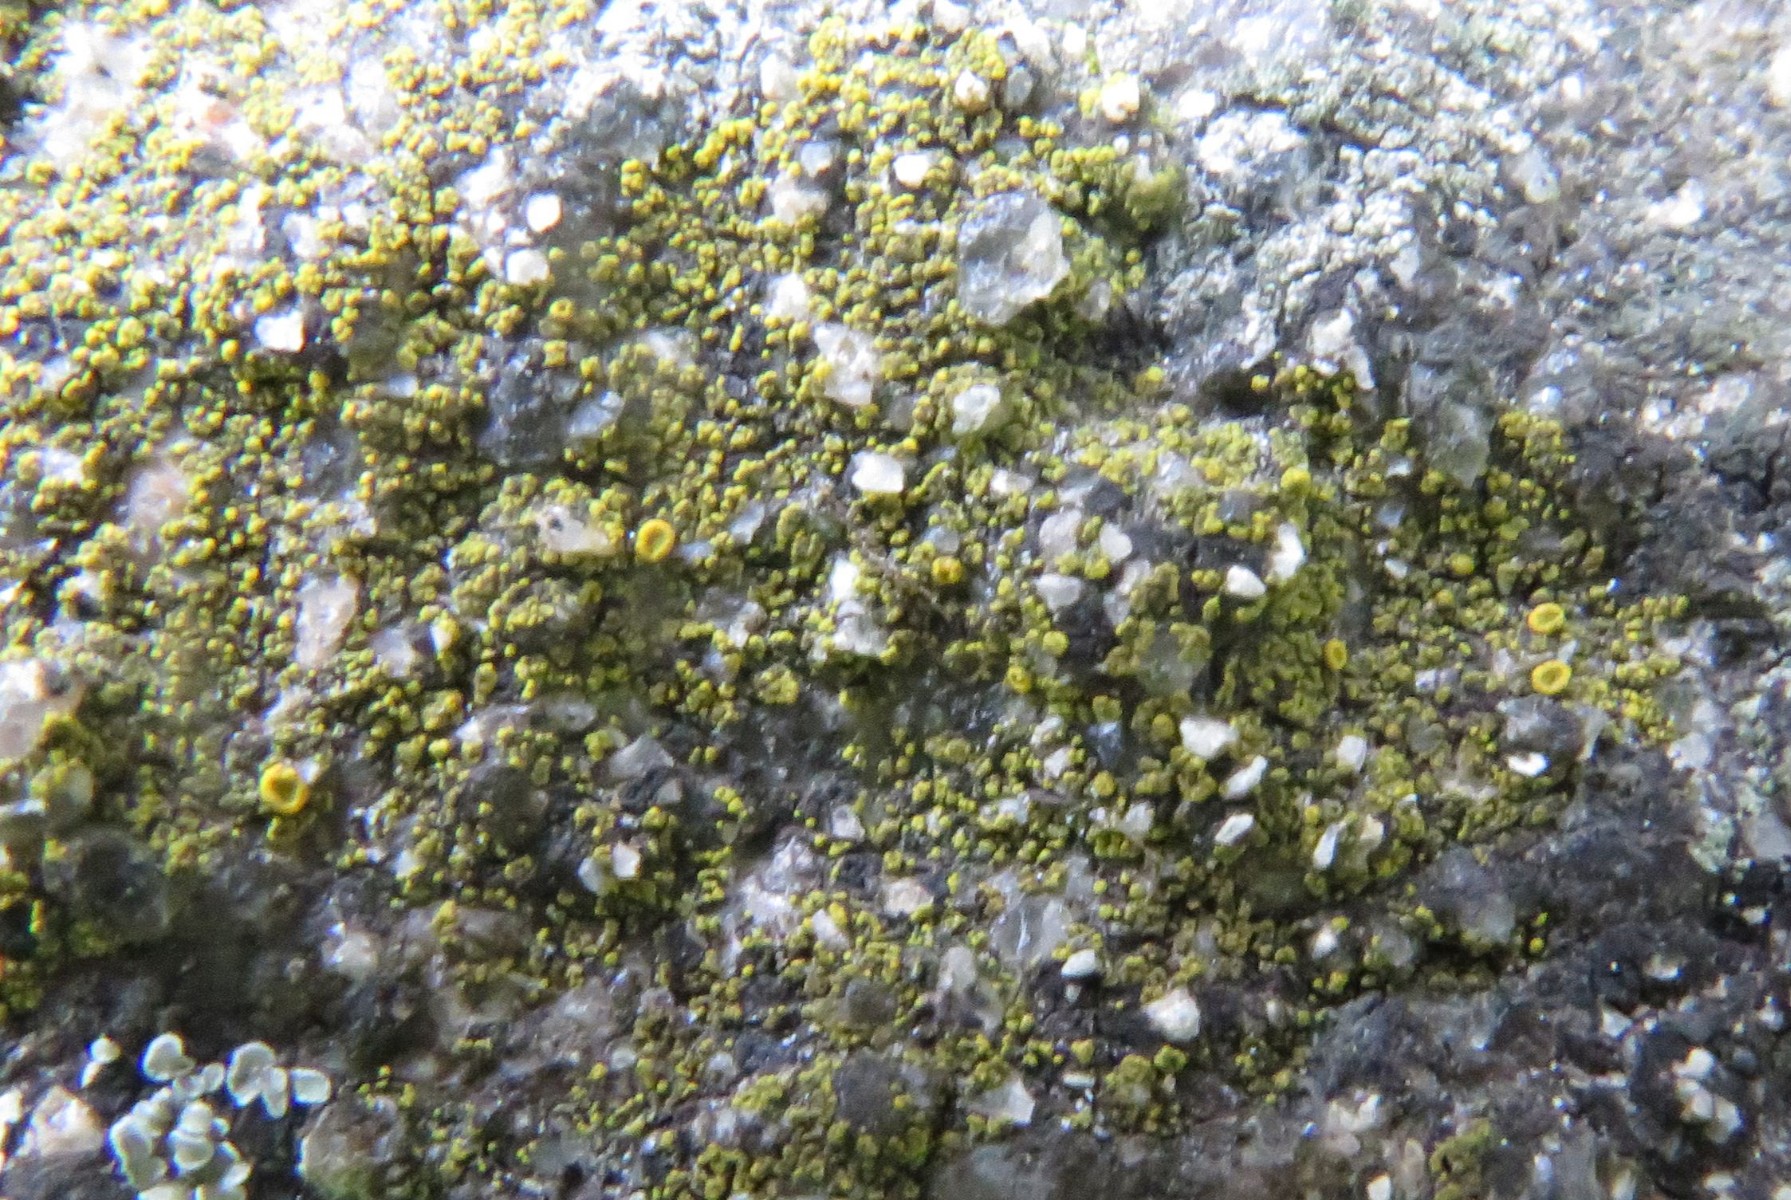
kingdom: Fungi
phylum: Ascomycota
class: Candelariomycetes
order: Candelariales
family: Candelariaceae
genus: Candelariella
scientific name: Candelariella vitellina
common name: almindelig æggeblommelav
